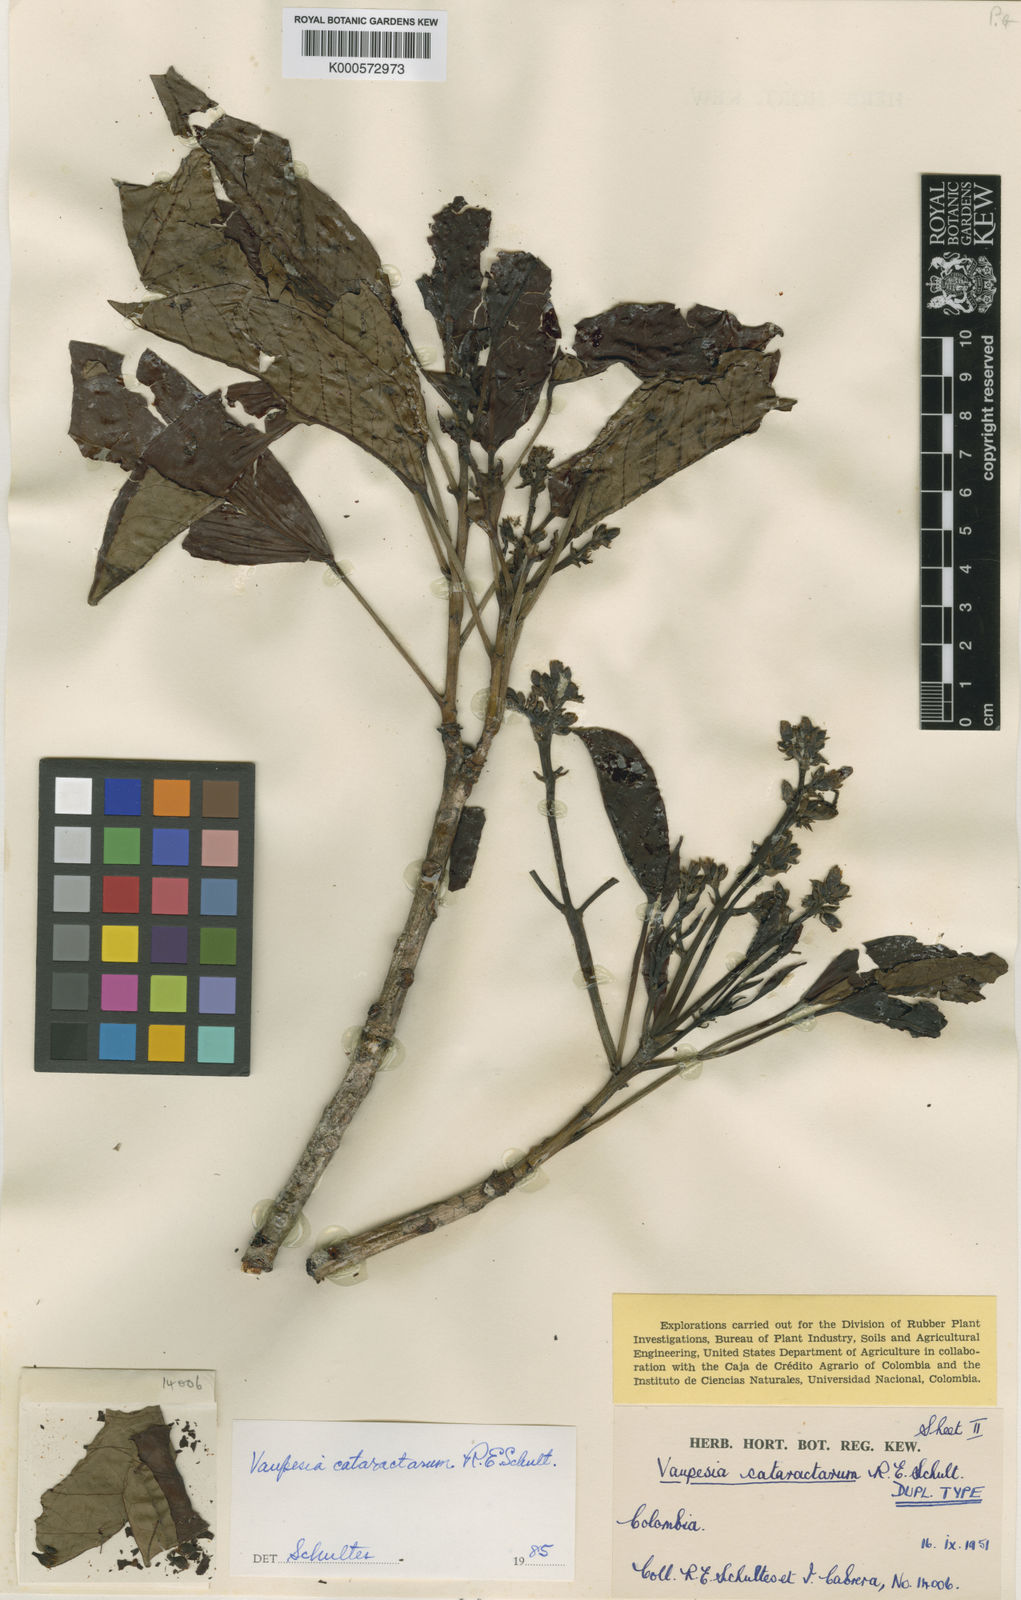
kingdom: Plantae
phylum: Tracheophyta
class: Magnoliopsida
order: Malpighiales
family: Euphorbiaceae
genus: Vaupesia
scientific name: Vaupesia cataractarum
